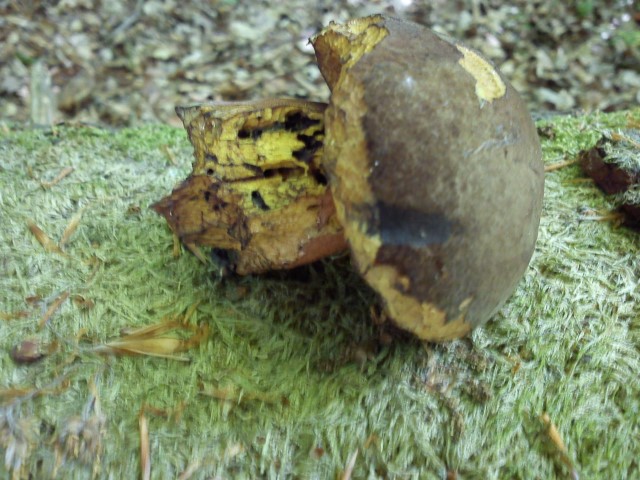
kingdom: Fungi
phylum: Basidiomycota
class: Agaricomycetes
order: Boletales
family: Boletaceae
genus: Neoboletus
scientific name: Neoboletus erythropus
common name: punktstokket indigorørhat
